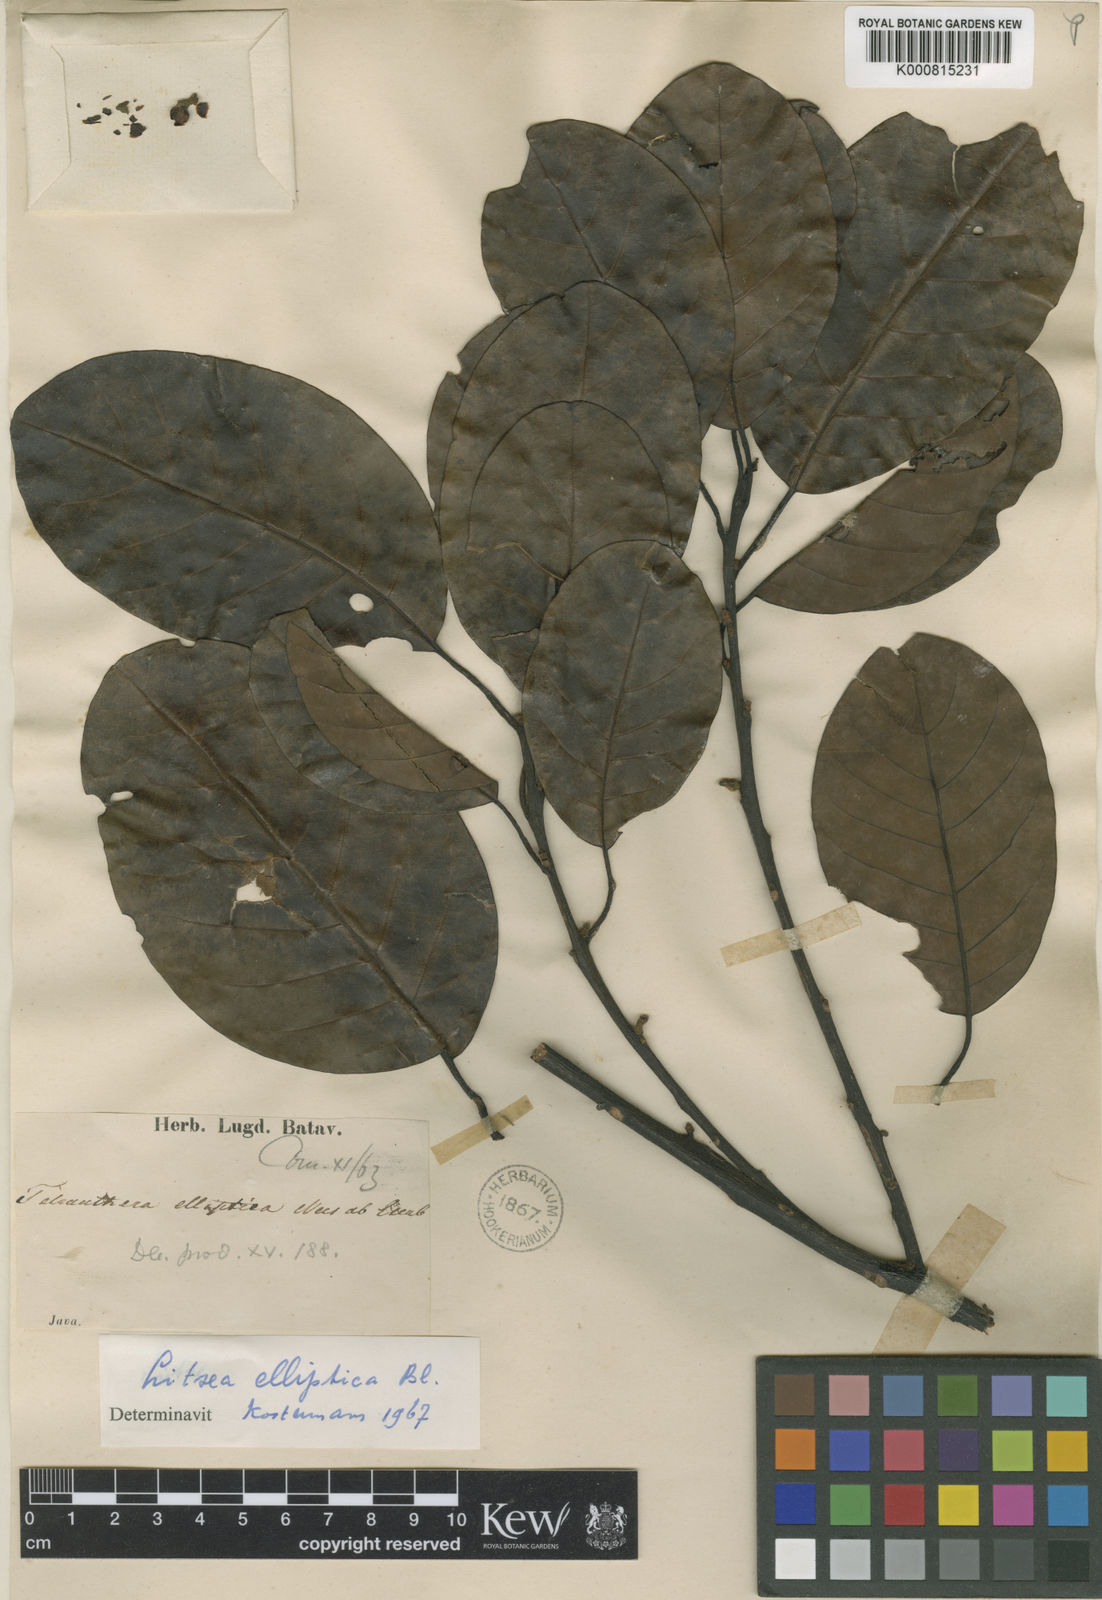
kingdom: Plantae
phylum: Tracheophyta
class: Magnoliopsida
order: Laurales
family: Lauraceae
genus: Litsea
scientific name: Litsea elliptica
